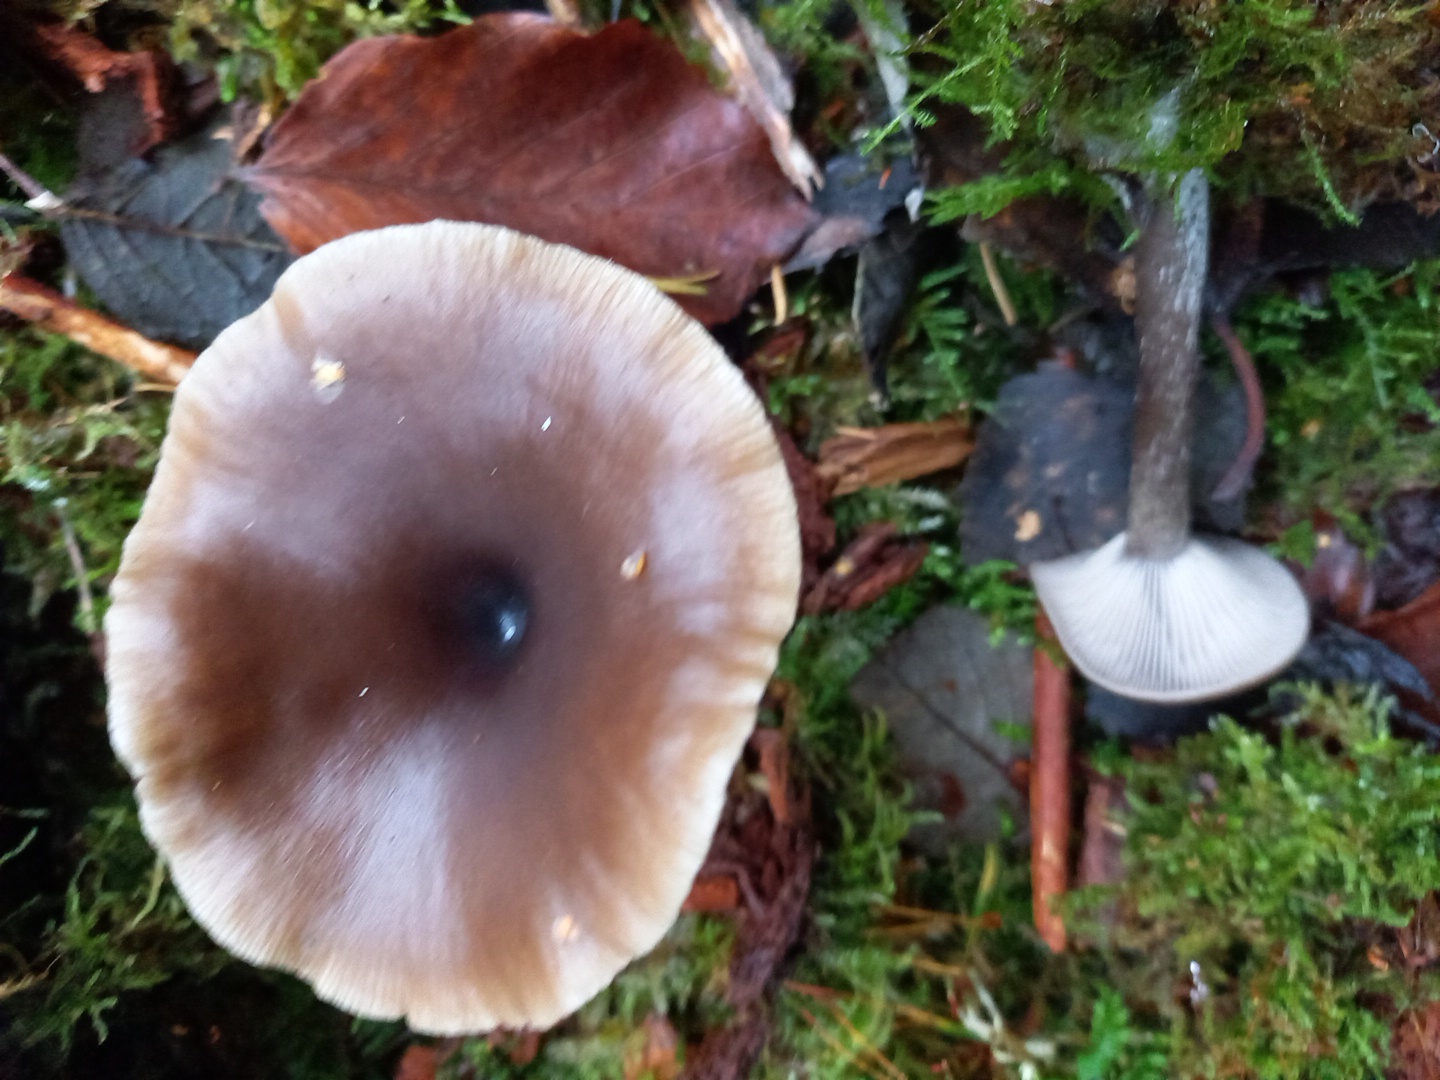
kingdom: Fungi
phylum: Basidiomycota
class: Agaricomycetes
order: Agaricales
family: Pseudoclitocybaceae
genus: Pseudoclitocybe
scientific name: Pseudoclitocybe cyathiformis
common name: almindelig bægertragthat
